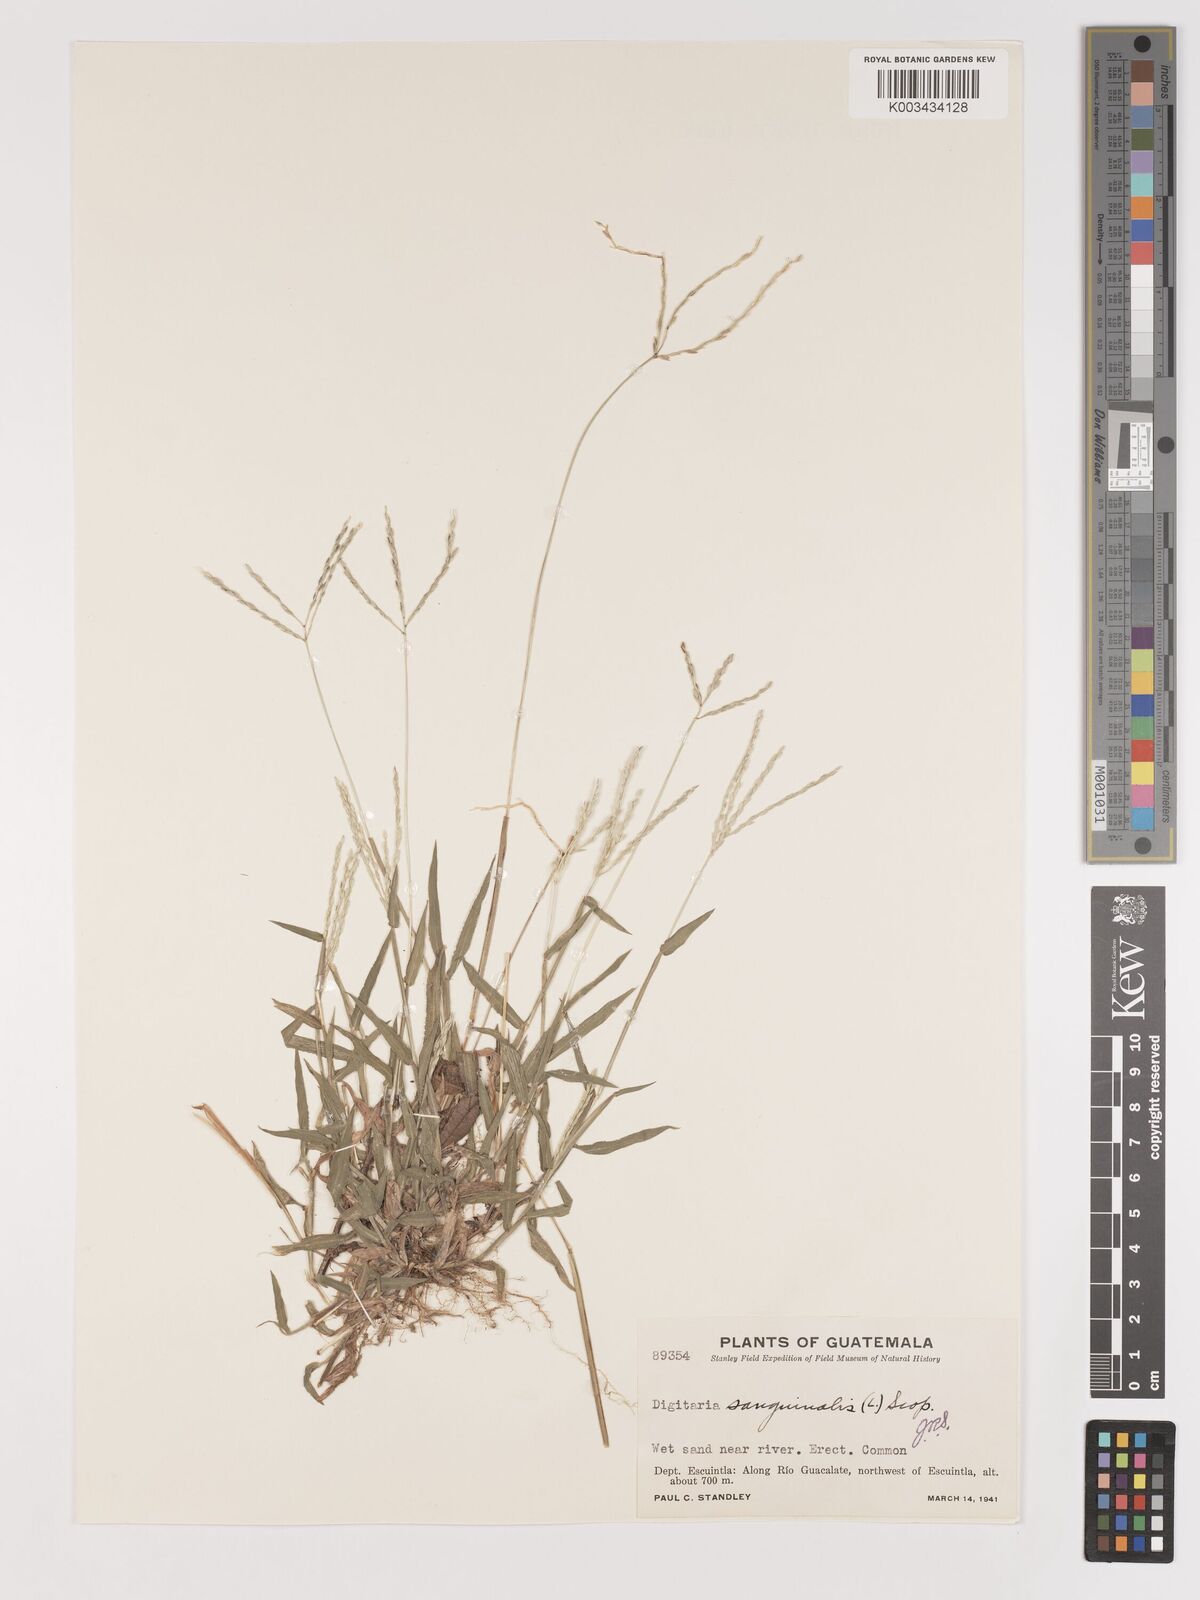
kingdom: Plantae
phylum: Tracheophyta
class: Liliopsida
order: Poales
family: Poaceae
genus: Digitaria
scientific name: Digitaria ciliaris
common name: Tropical finger-grass
